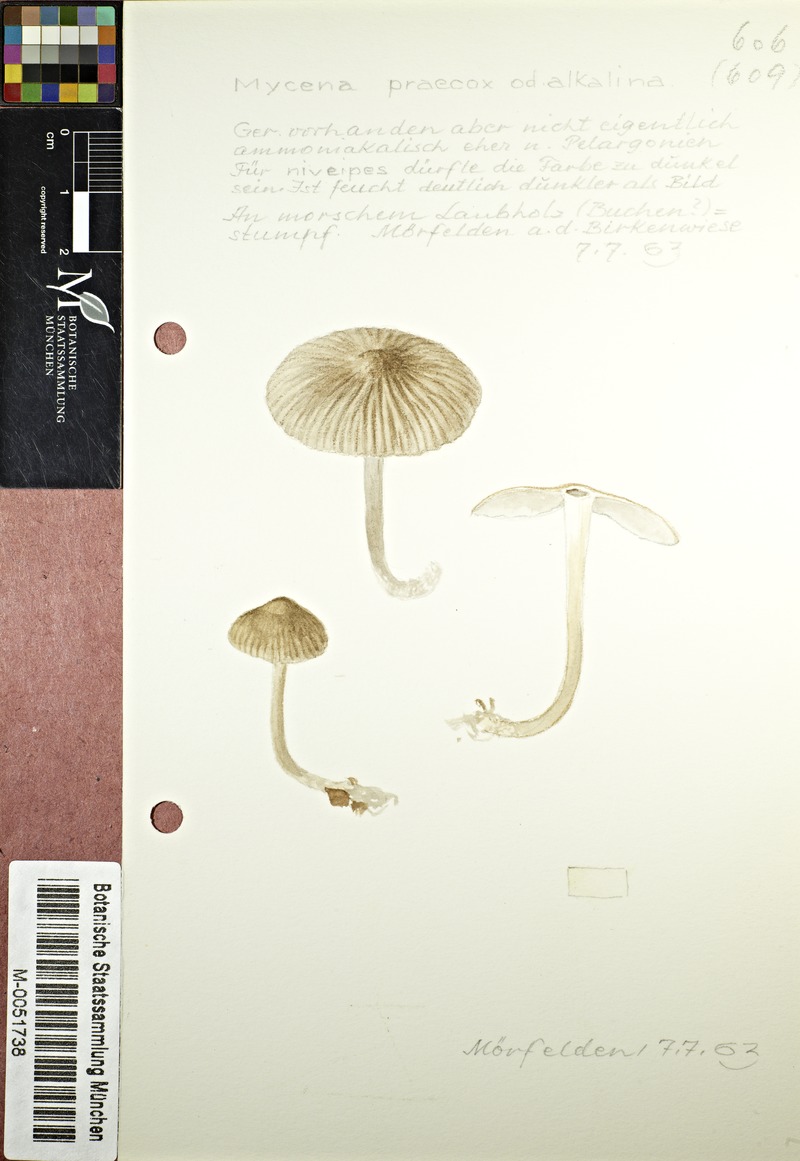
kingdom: Fungi
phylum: Basidiomycota
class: Agaricomycetes
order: Agaricales
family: Mycenaceae
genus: Mycena
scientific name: Mycena abramsii
